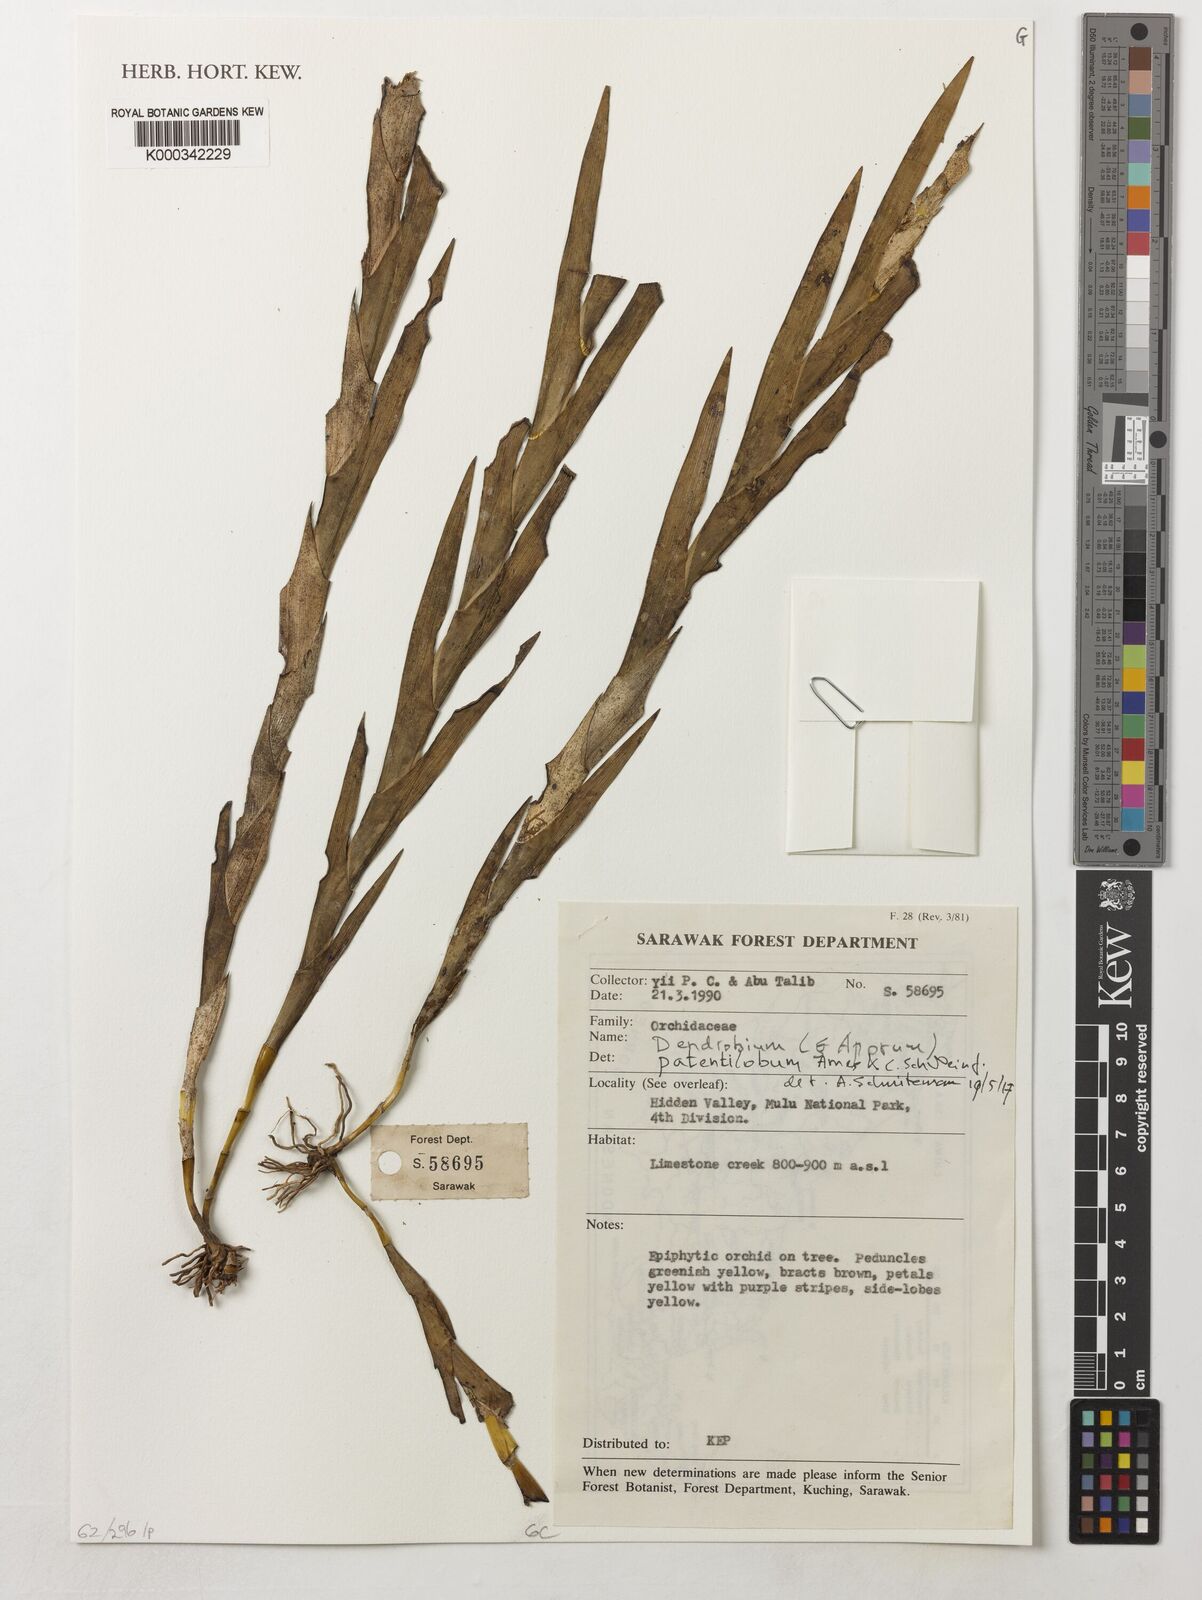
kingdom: Plantae
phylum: Tracheophyta
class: Liliopsida
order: Asparagales
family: Orchidaceae
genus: Dendrobium
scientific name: Dendrobium patentilobum
